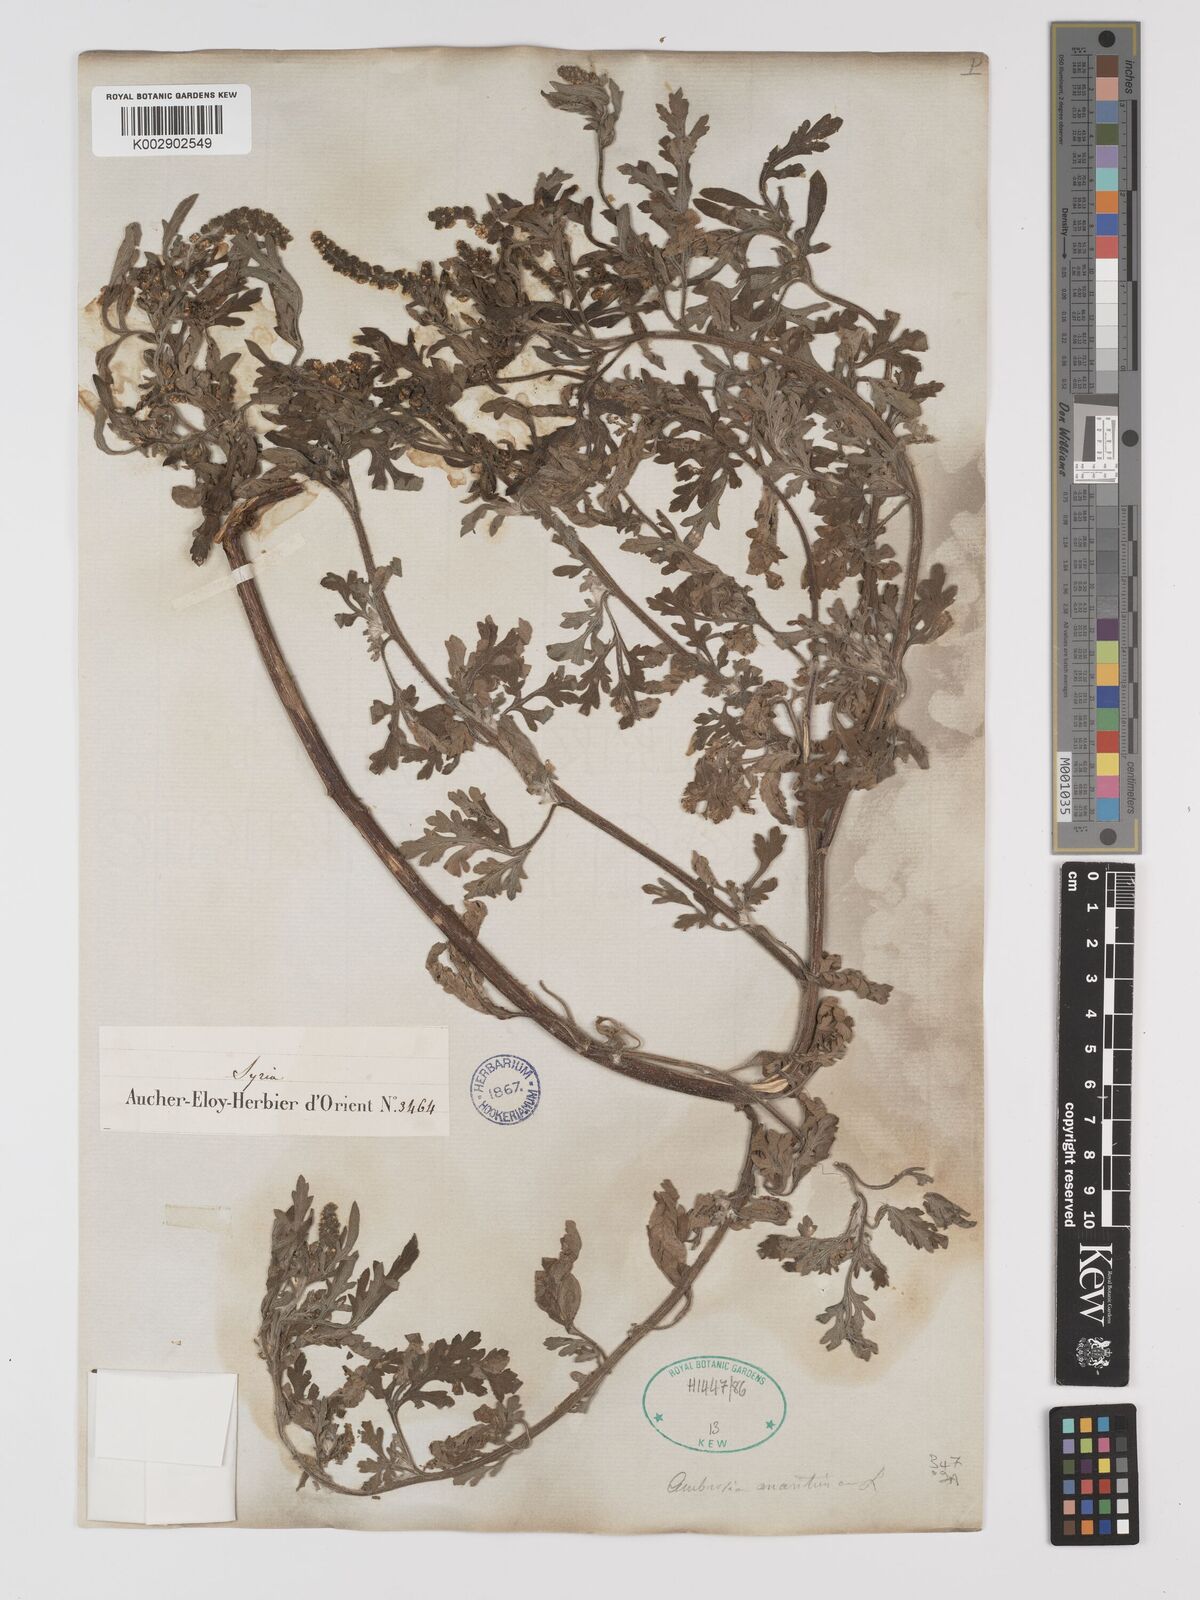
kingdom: Plantae
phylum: Tracheophyta
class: Magnoliopsida
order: Asterales
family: Asteraceae
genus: Ambrosia
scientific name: Ambrosia maritima
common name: Sea ambrosia
